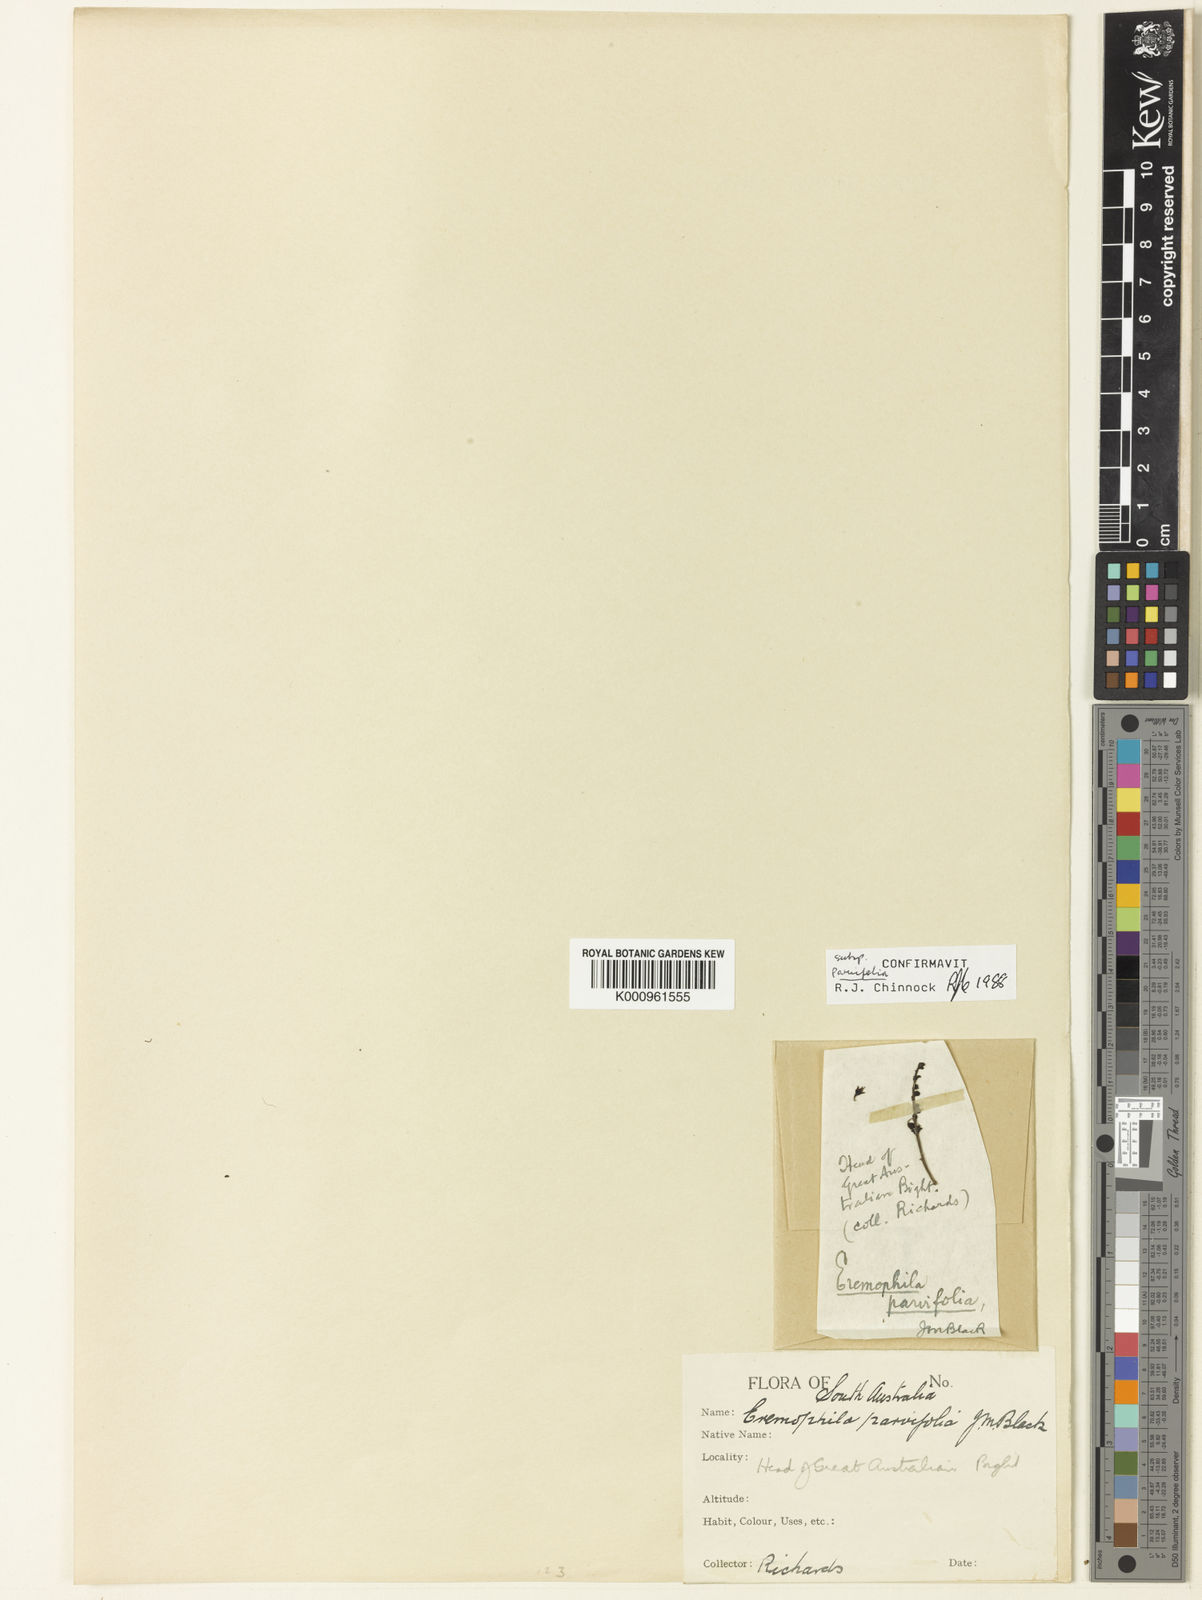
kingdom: Plantae
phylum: Tracheophyta
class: Magnoliopsida
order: Lamiales
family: Scrophulariaceae
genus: Eremophila
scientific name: Eremophila parvifolia
